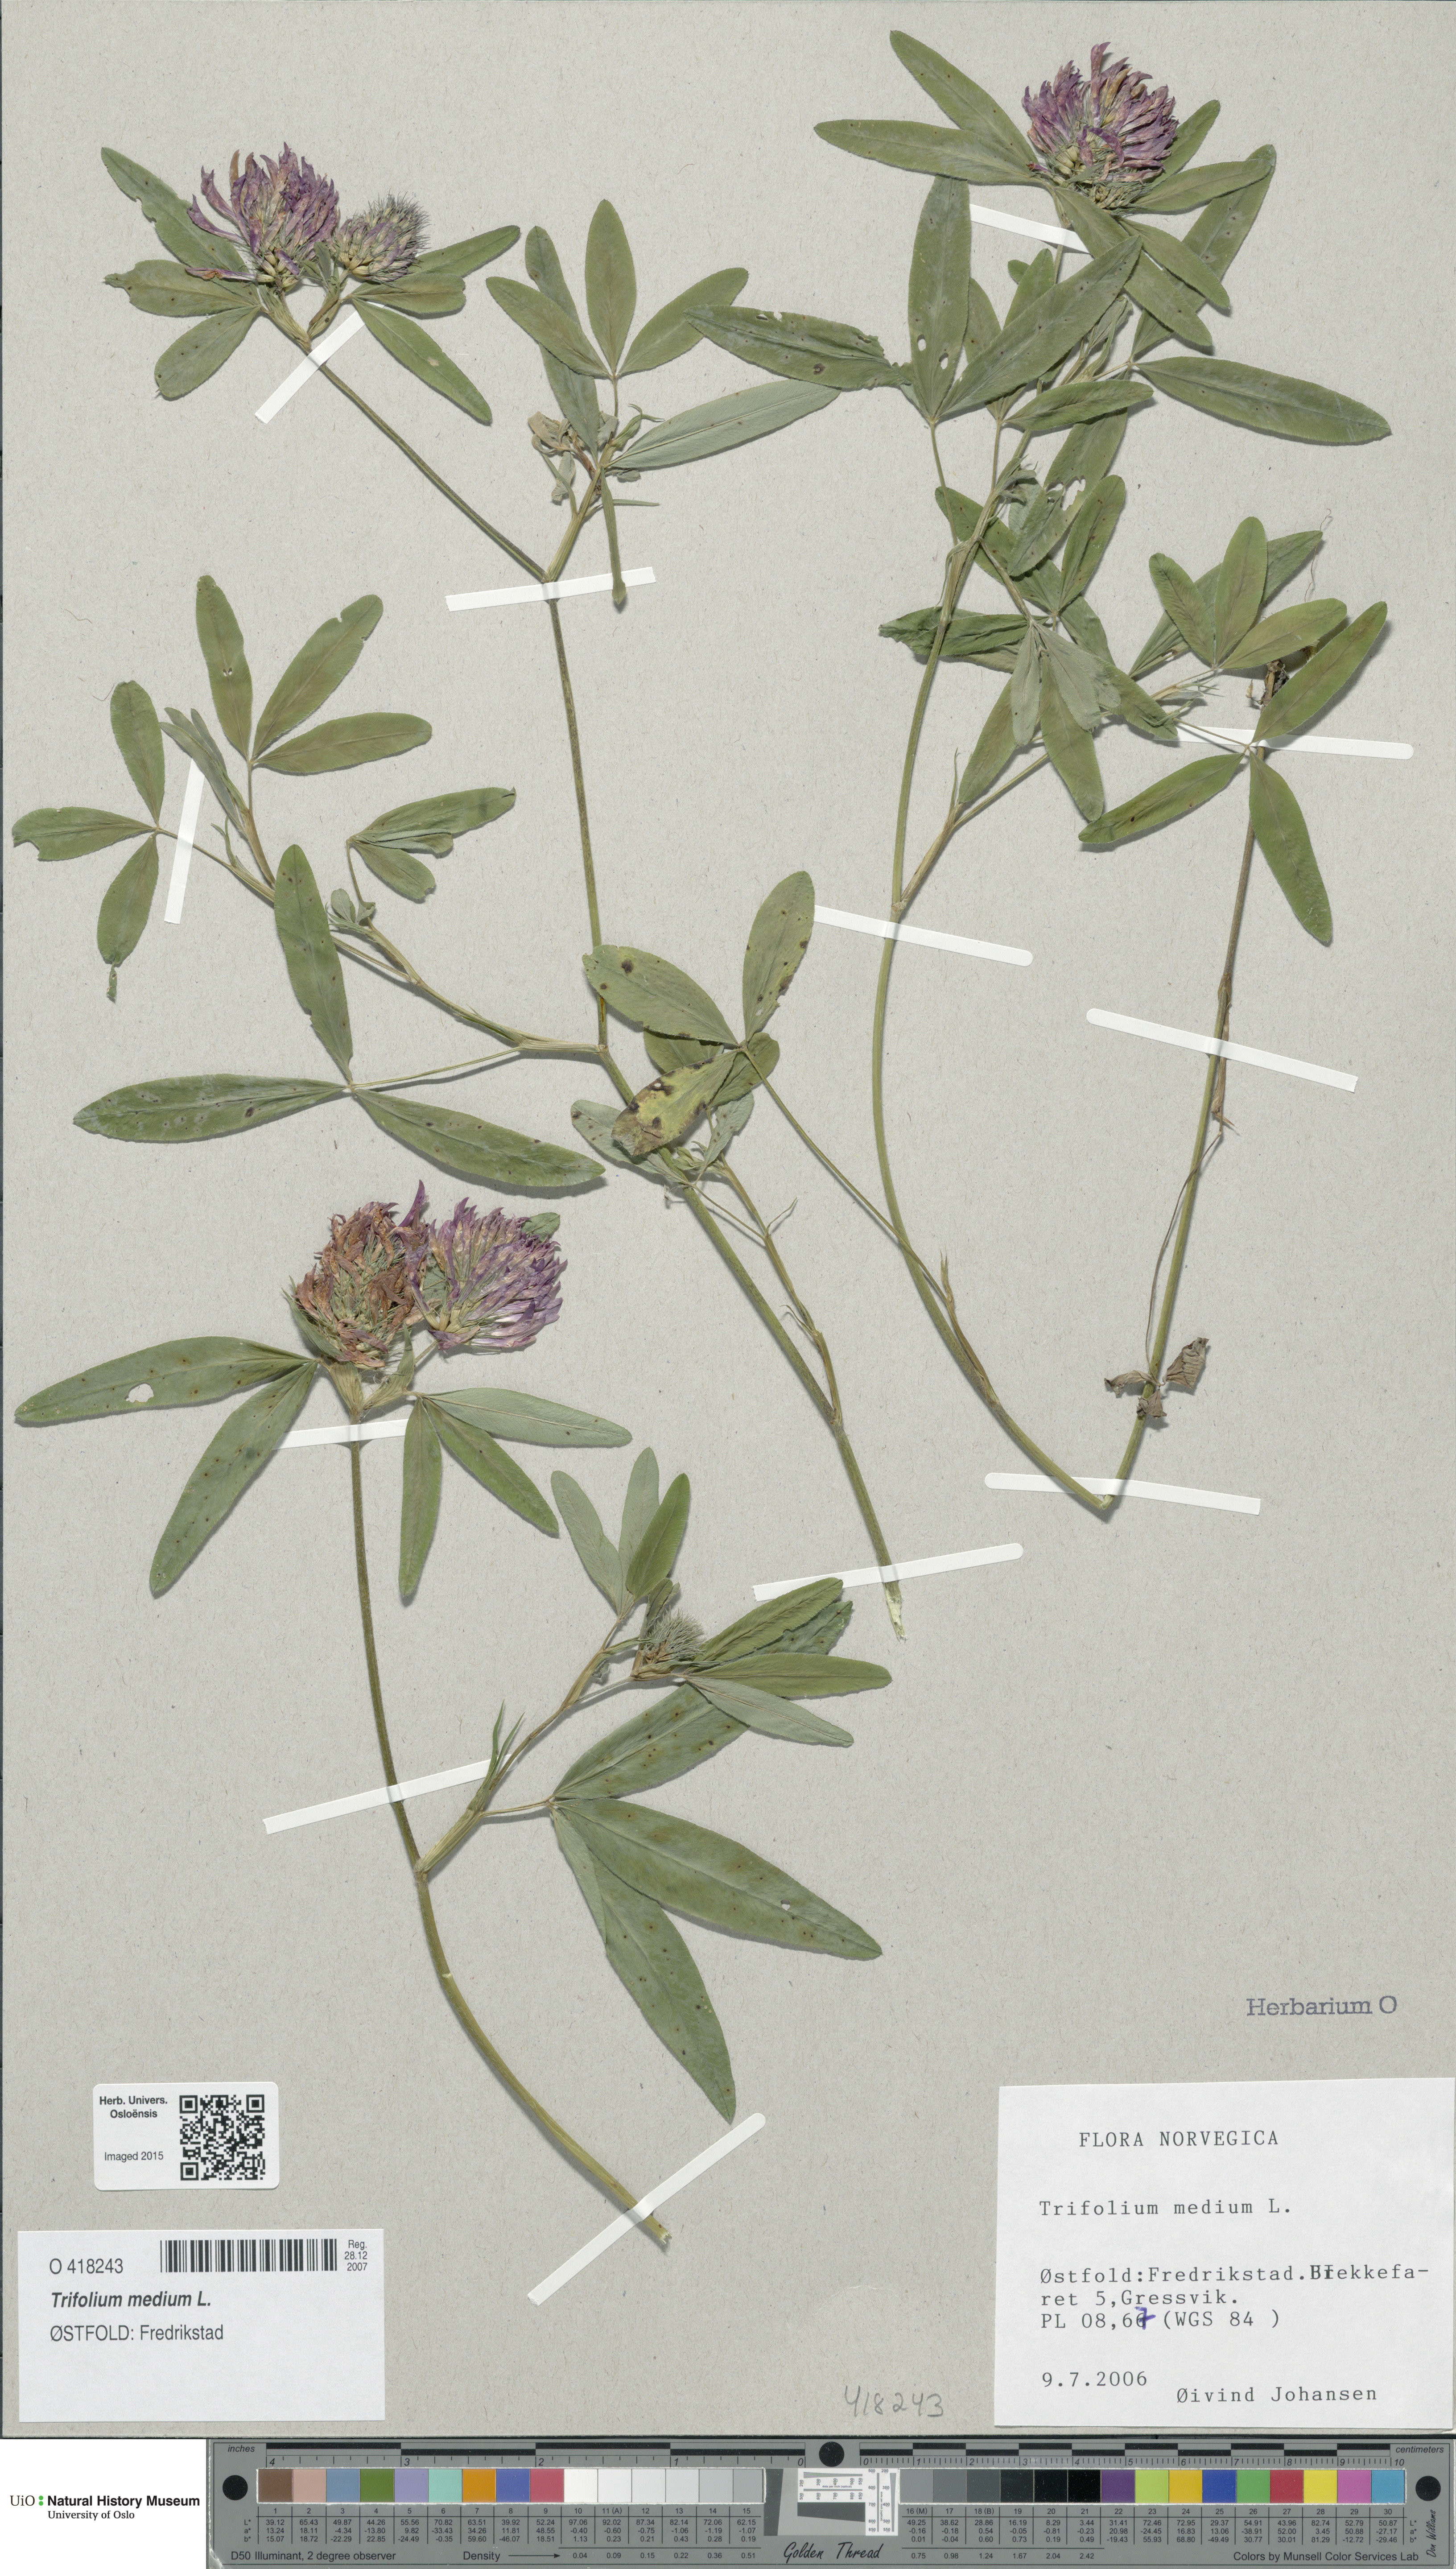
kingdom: Plantae
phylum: Tracheophyta
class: Magnoliopsida
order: Fabales
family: Fabaceae
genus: Trifolium
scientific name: Trifolium medium
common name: Zigzag clover
